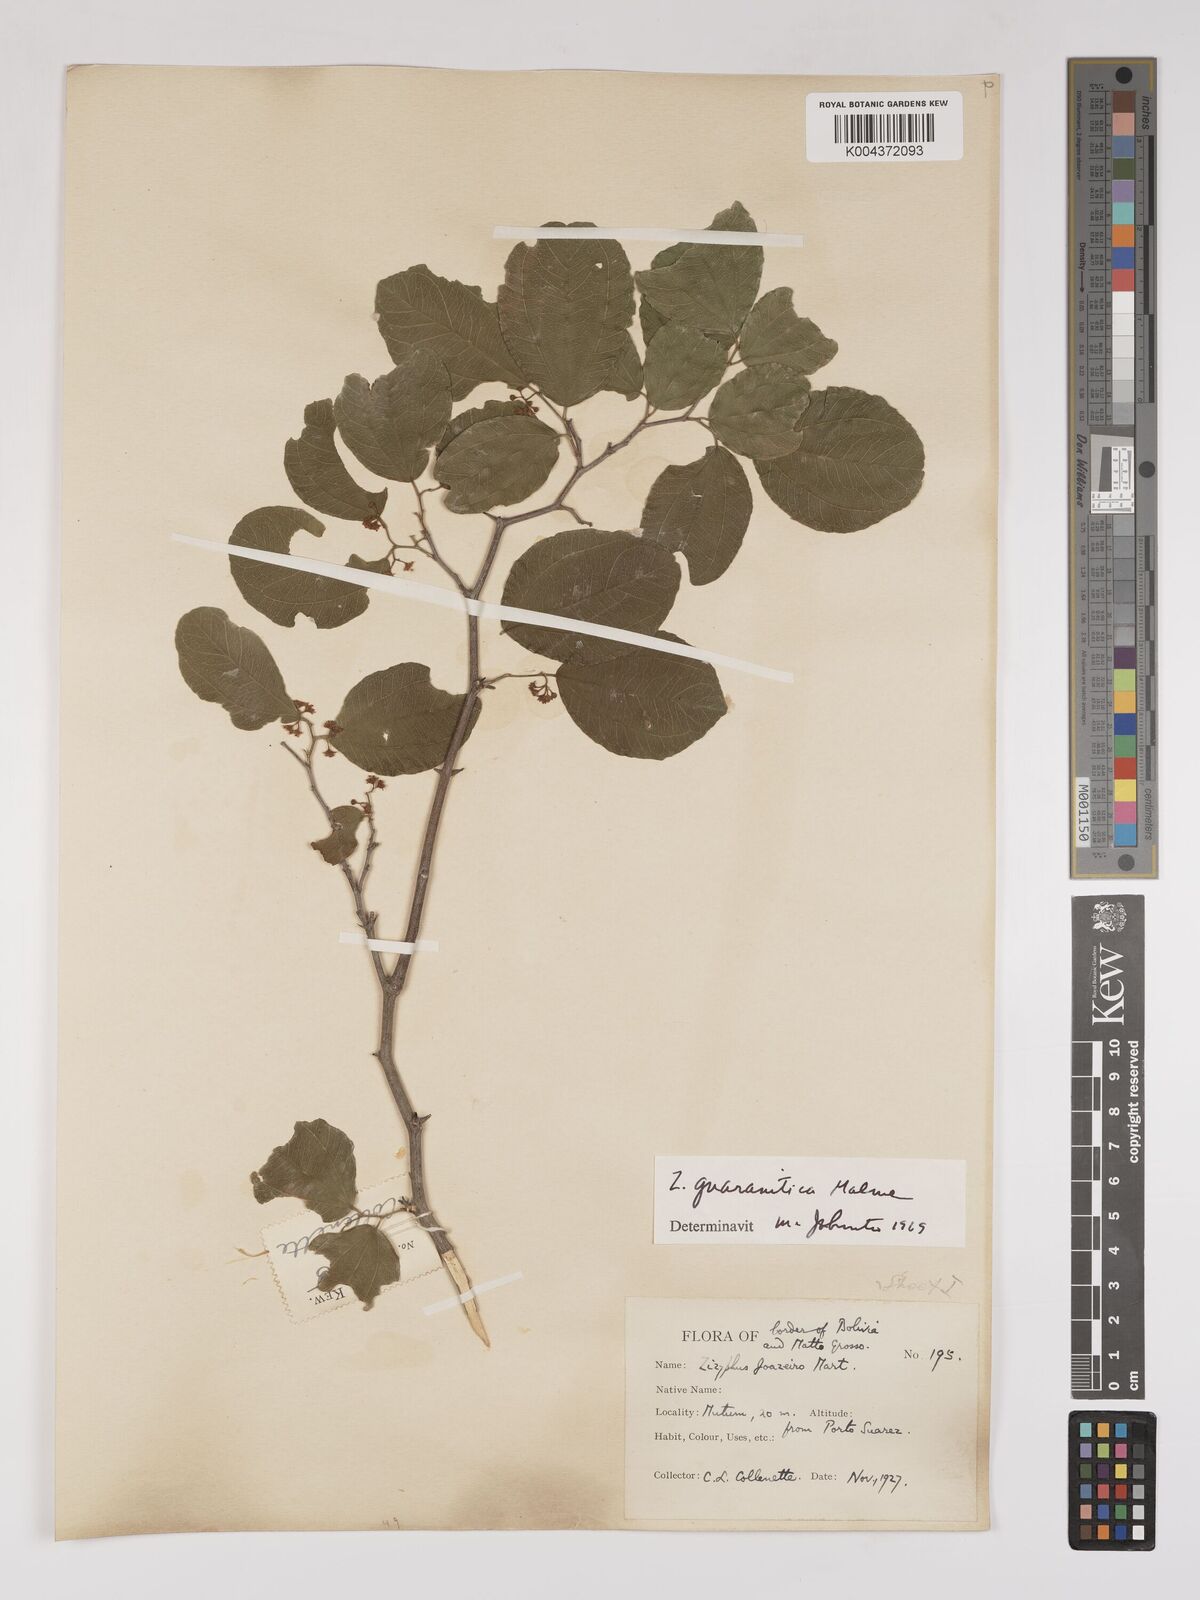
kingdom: Plantae
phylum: Tracheophyta
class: Magnoliopsida
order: Rosales
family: Rhamnaceae
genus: Ziziphus
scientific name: Ziziphus guaranitica
